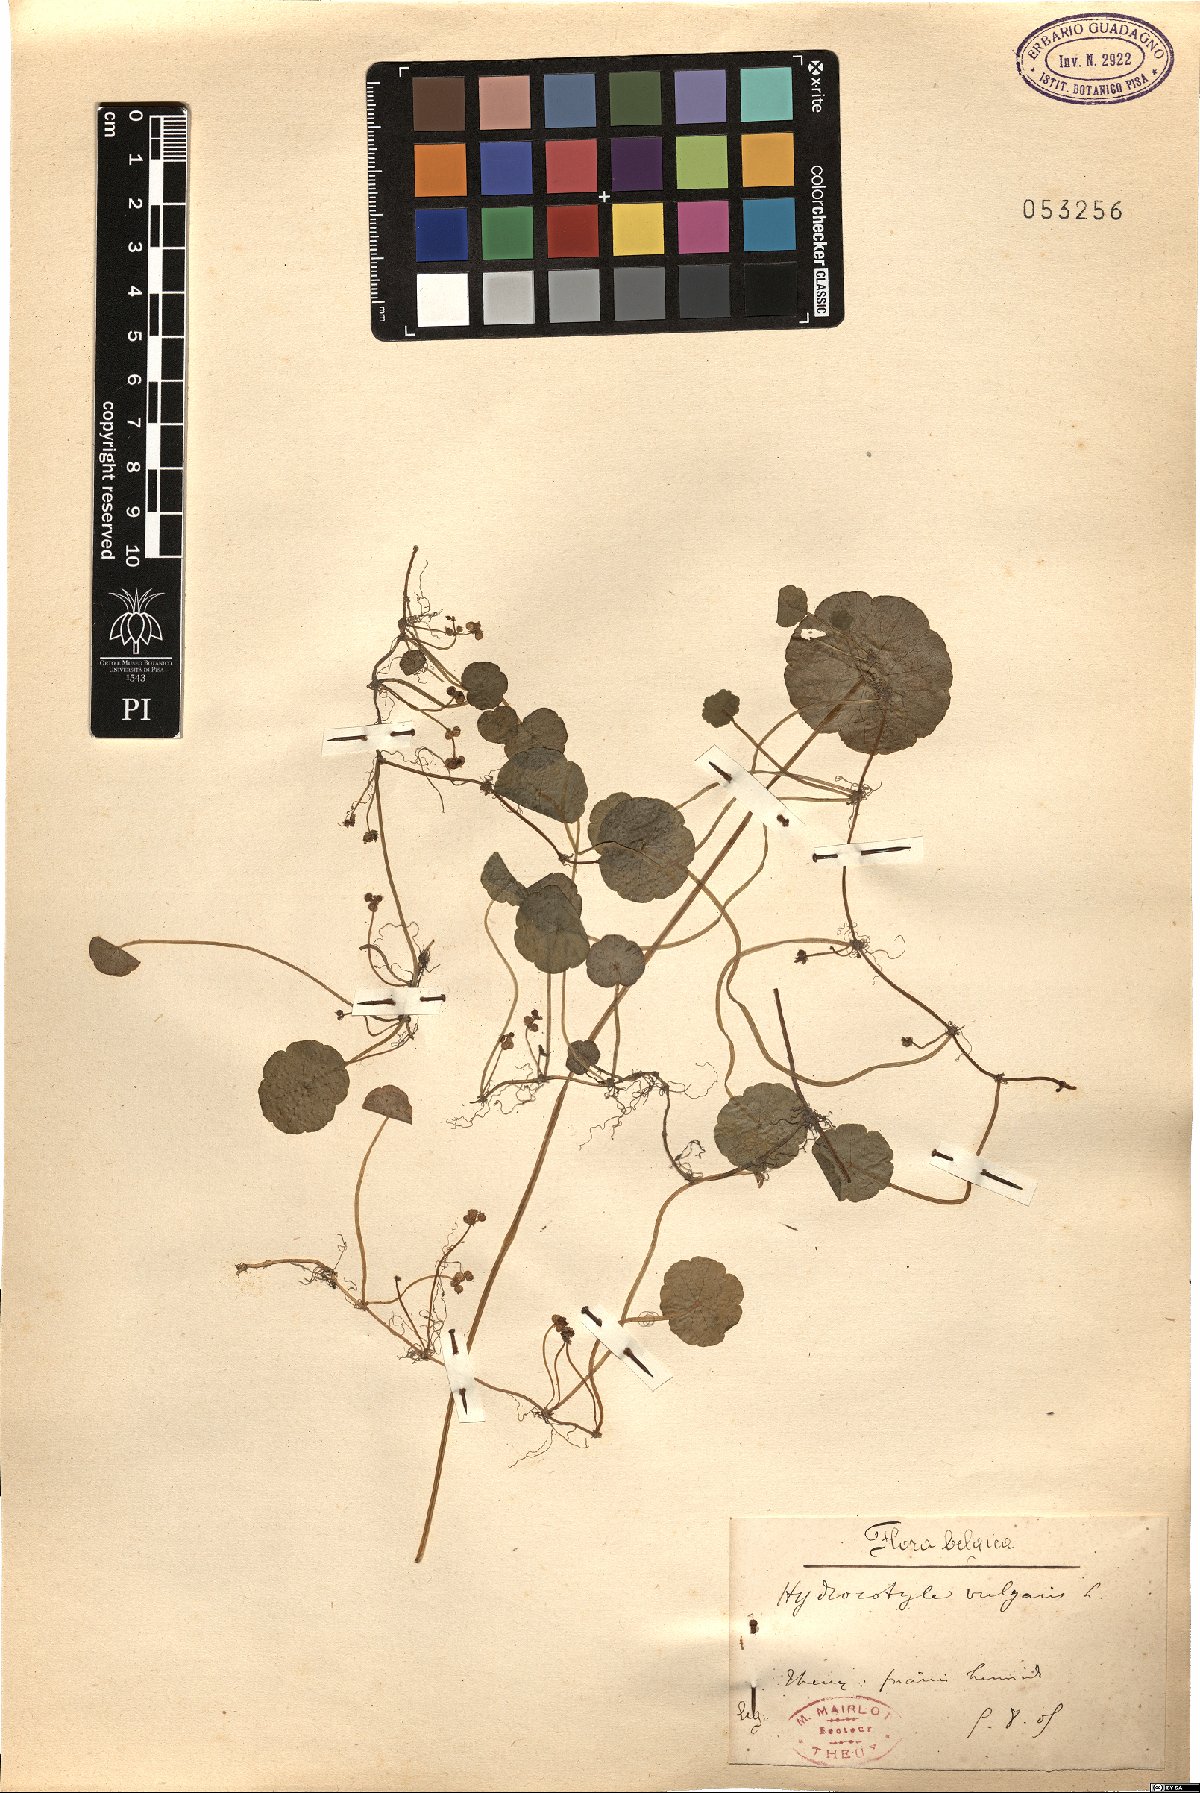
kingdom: Plantae
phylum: Tracheophyta
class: Magnoliopsida
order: Apiales
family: Araliaceae
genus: Hydrocotyle
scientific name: Hydrocotyle vulgaris
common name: Marsh pennywort
